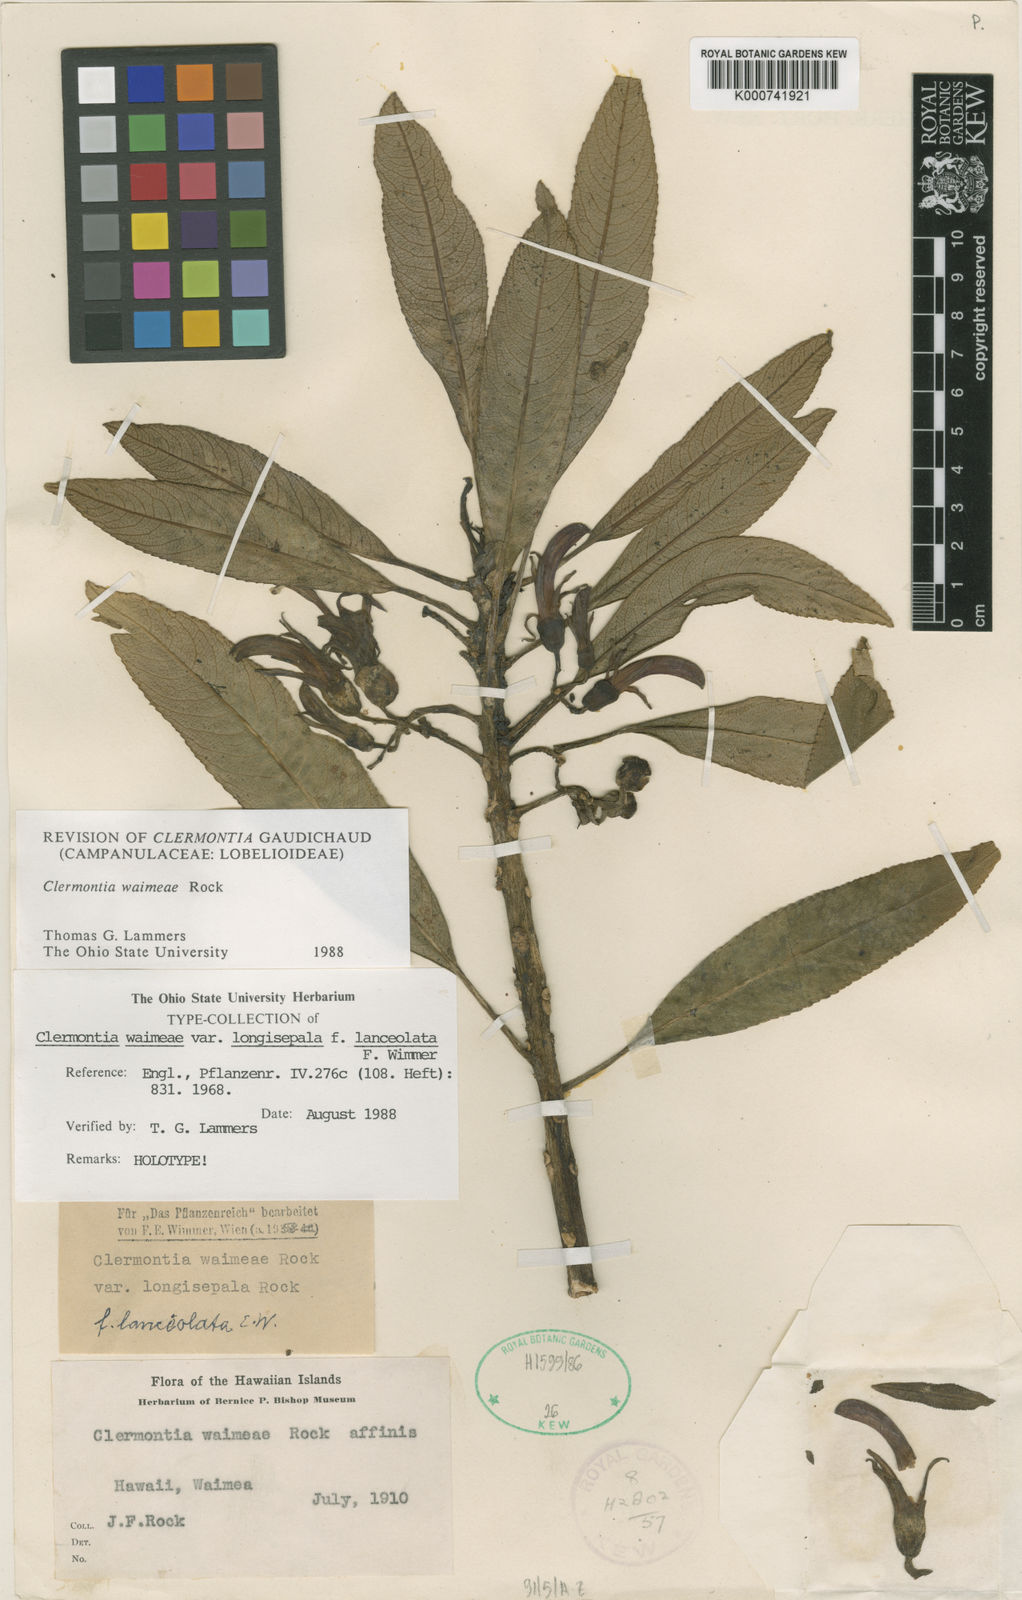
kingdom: Plantae
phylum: Tracheophyta
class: Magnoliopsida
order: Asterales
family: Campanulaceae
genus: Clermontia
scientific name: Clermontia waimeae
